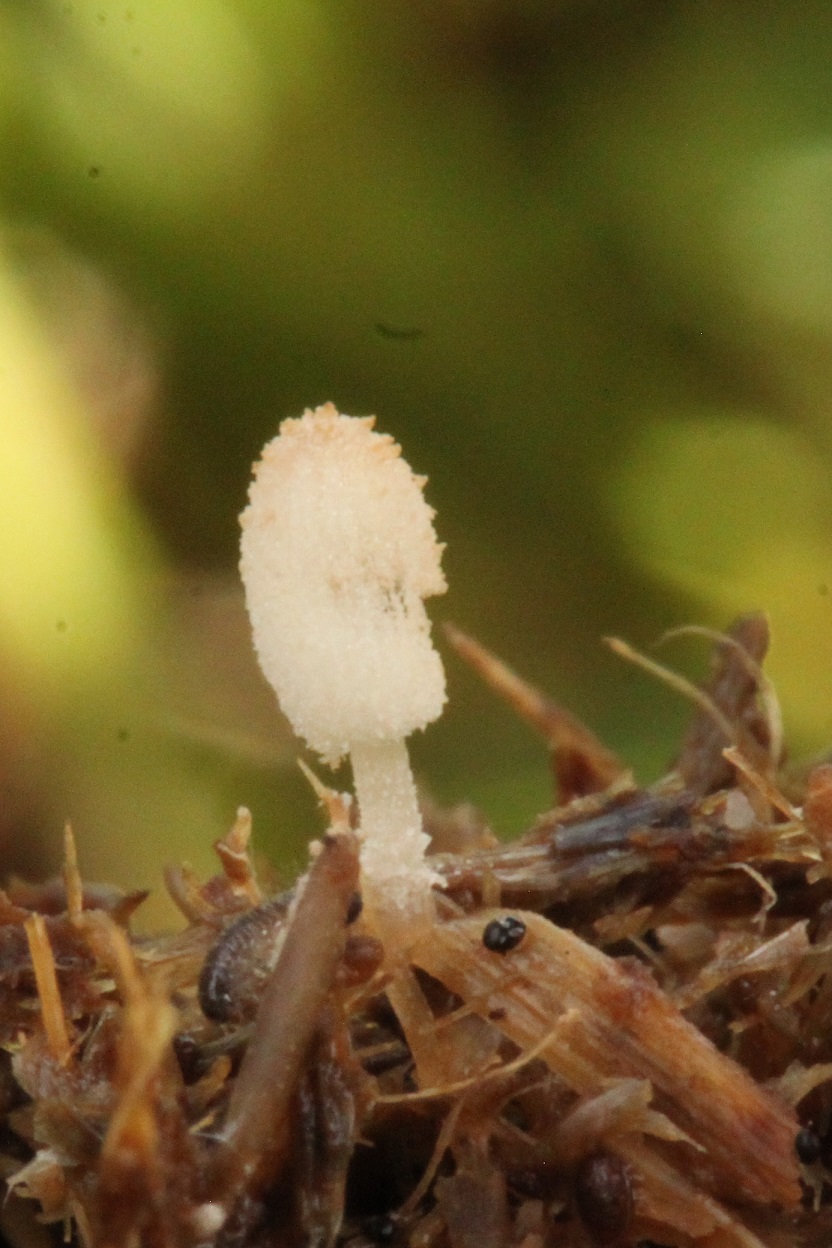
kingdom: Fungi
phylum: Basidiomycota
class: Agaricomycetes
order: Agaricales
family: Psathyrellaceae
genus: Narcissea
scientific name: Narcissea ephemeroides
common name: ring-blækhat
